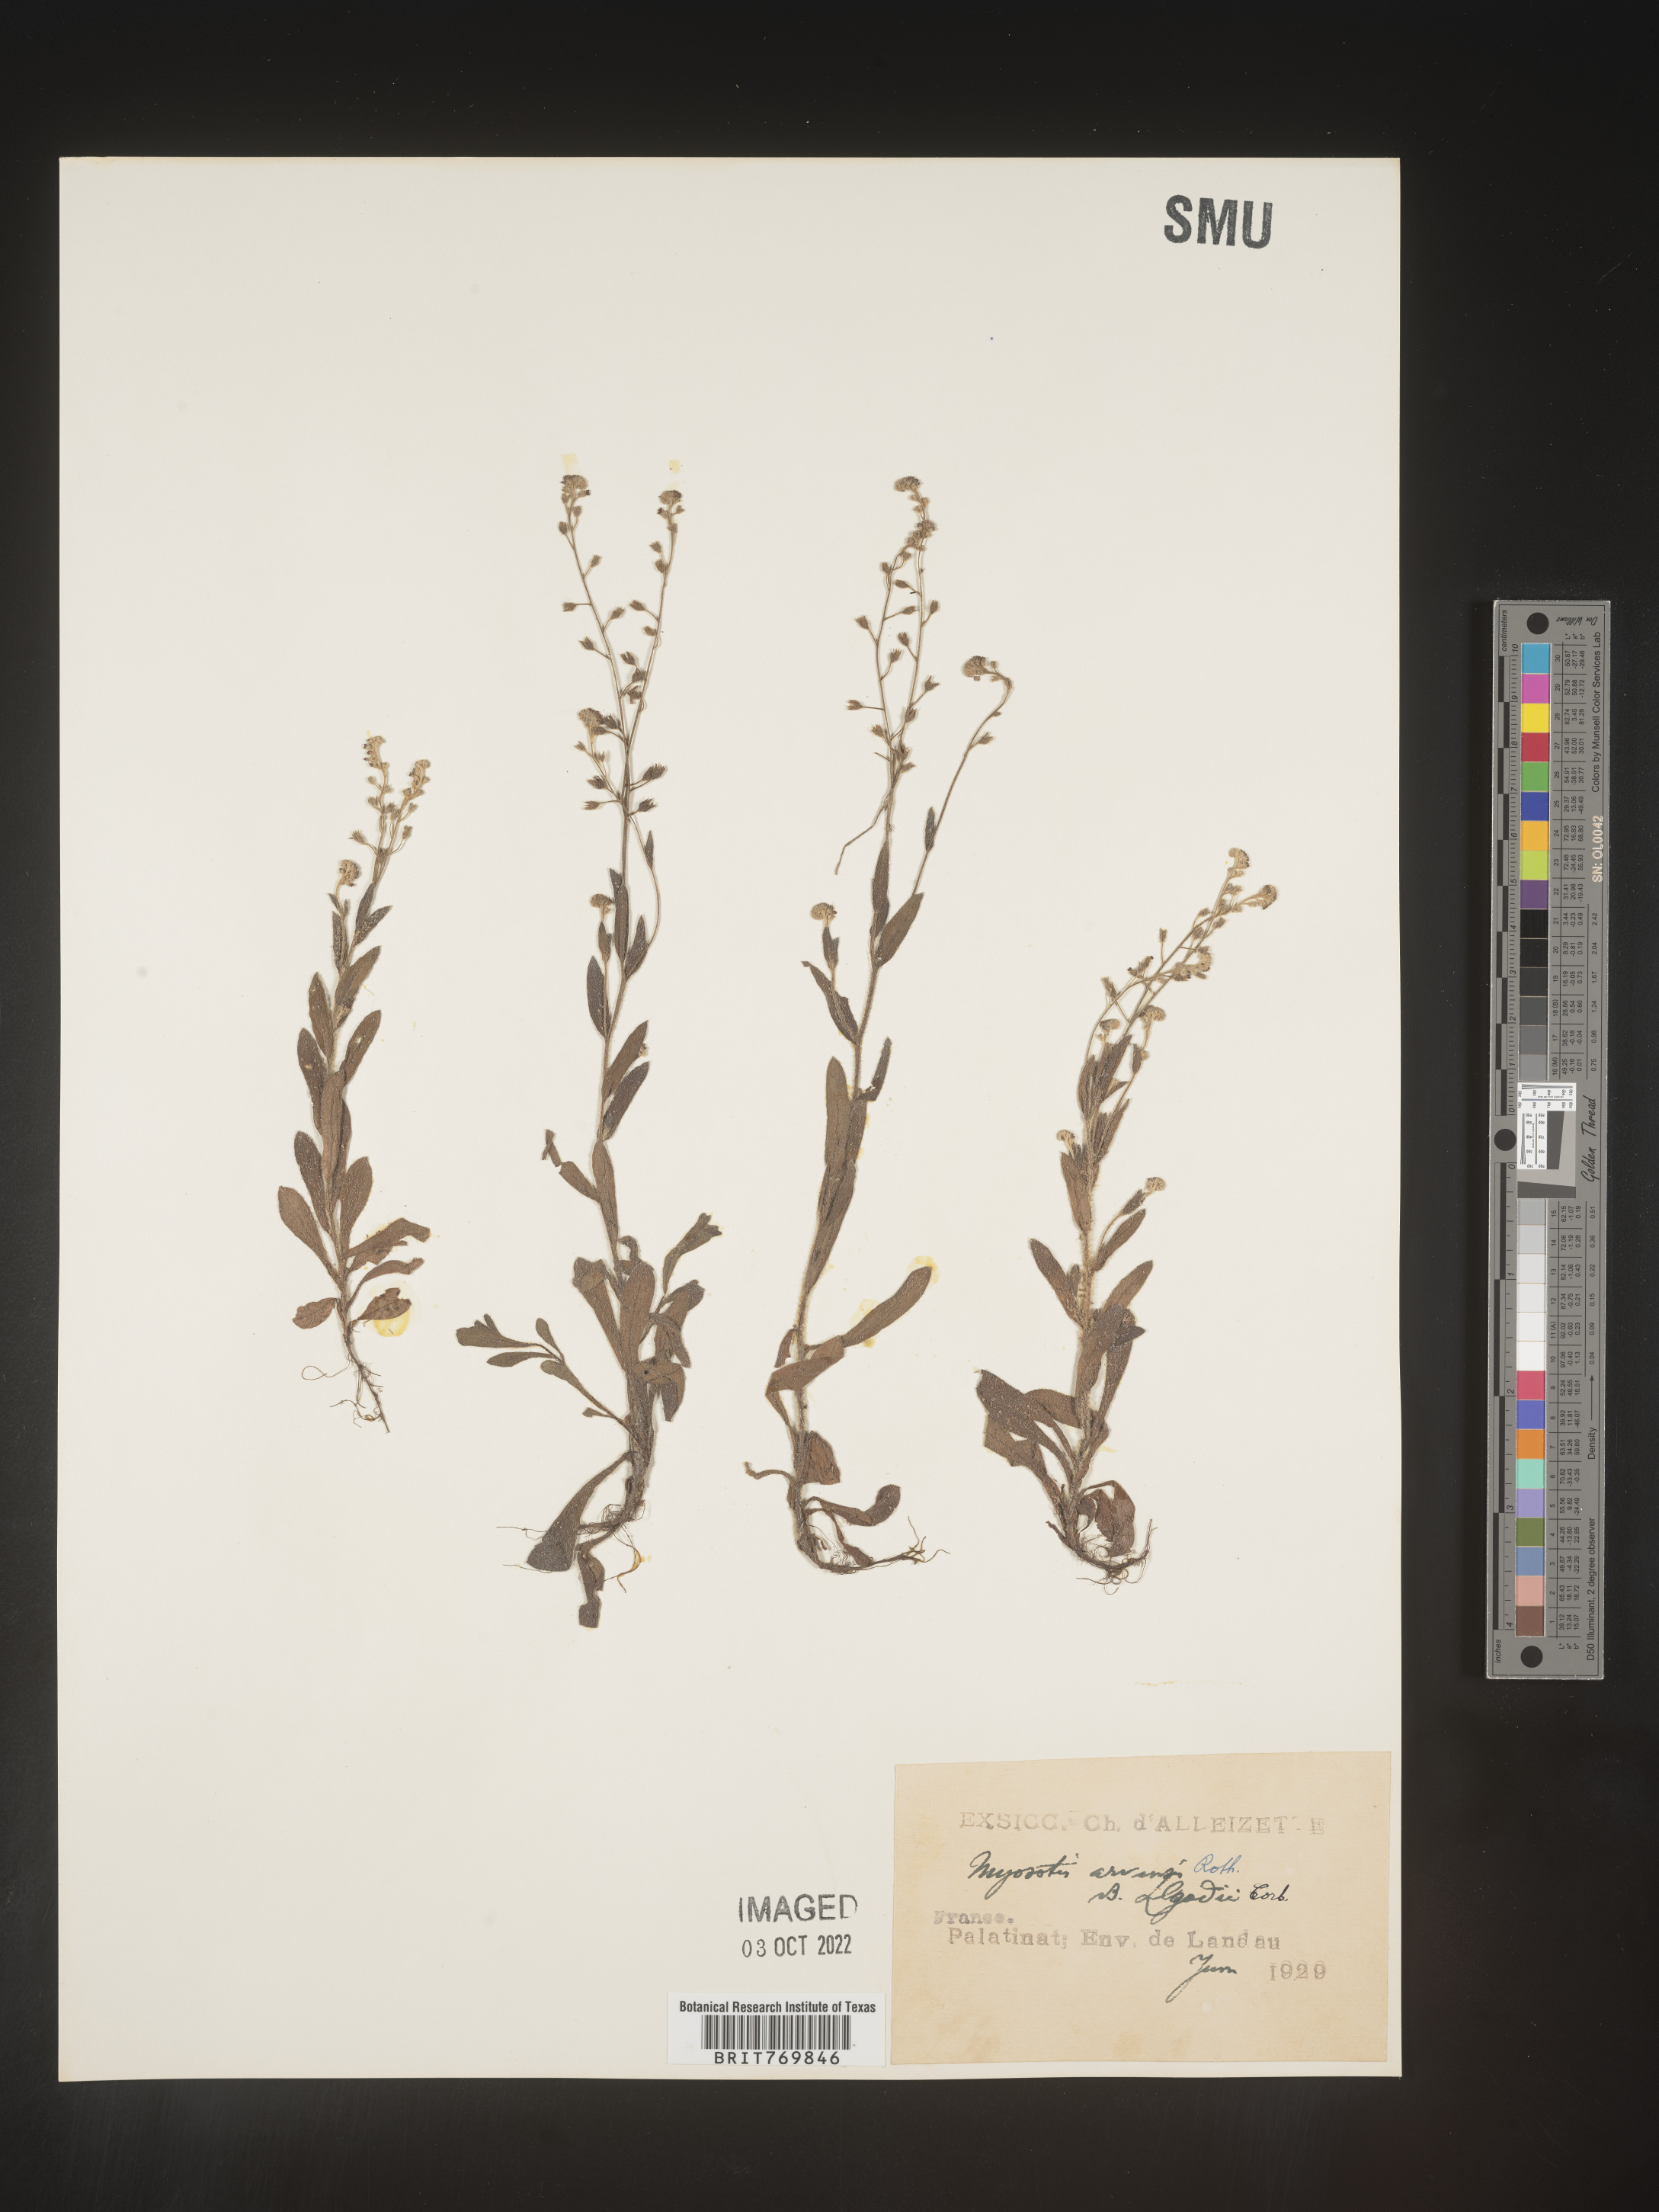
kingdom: Plantae
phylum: Tracheophyta
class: Magnoliopsida
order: Boraginales
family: Boraginaceae
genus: Myosotis
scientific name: Myosotis
